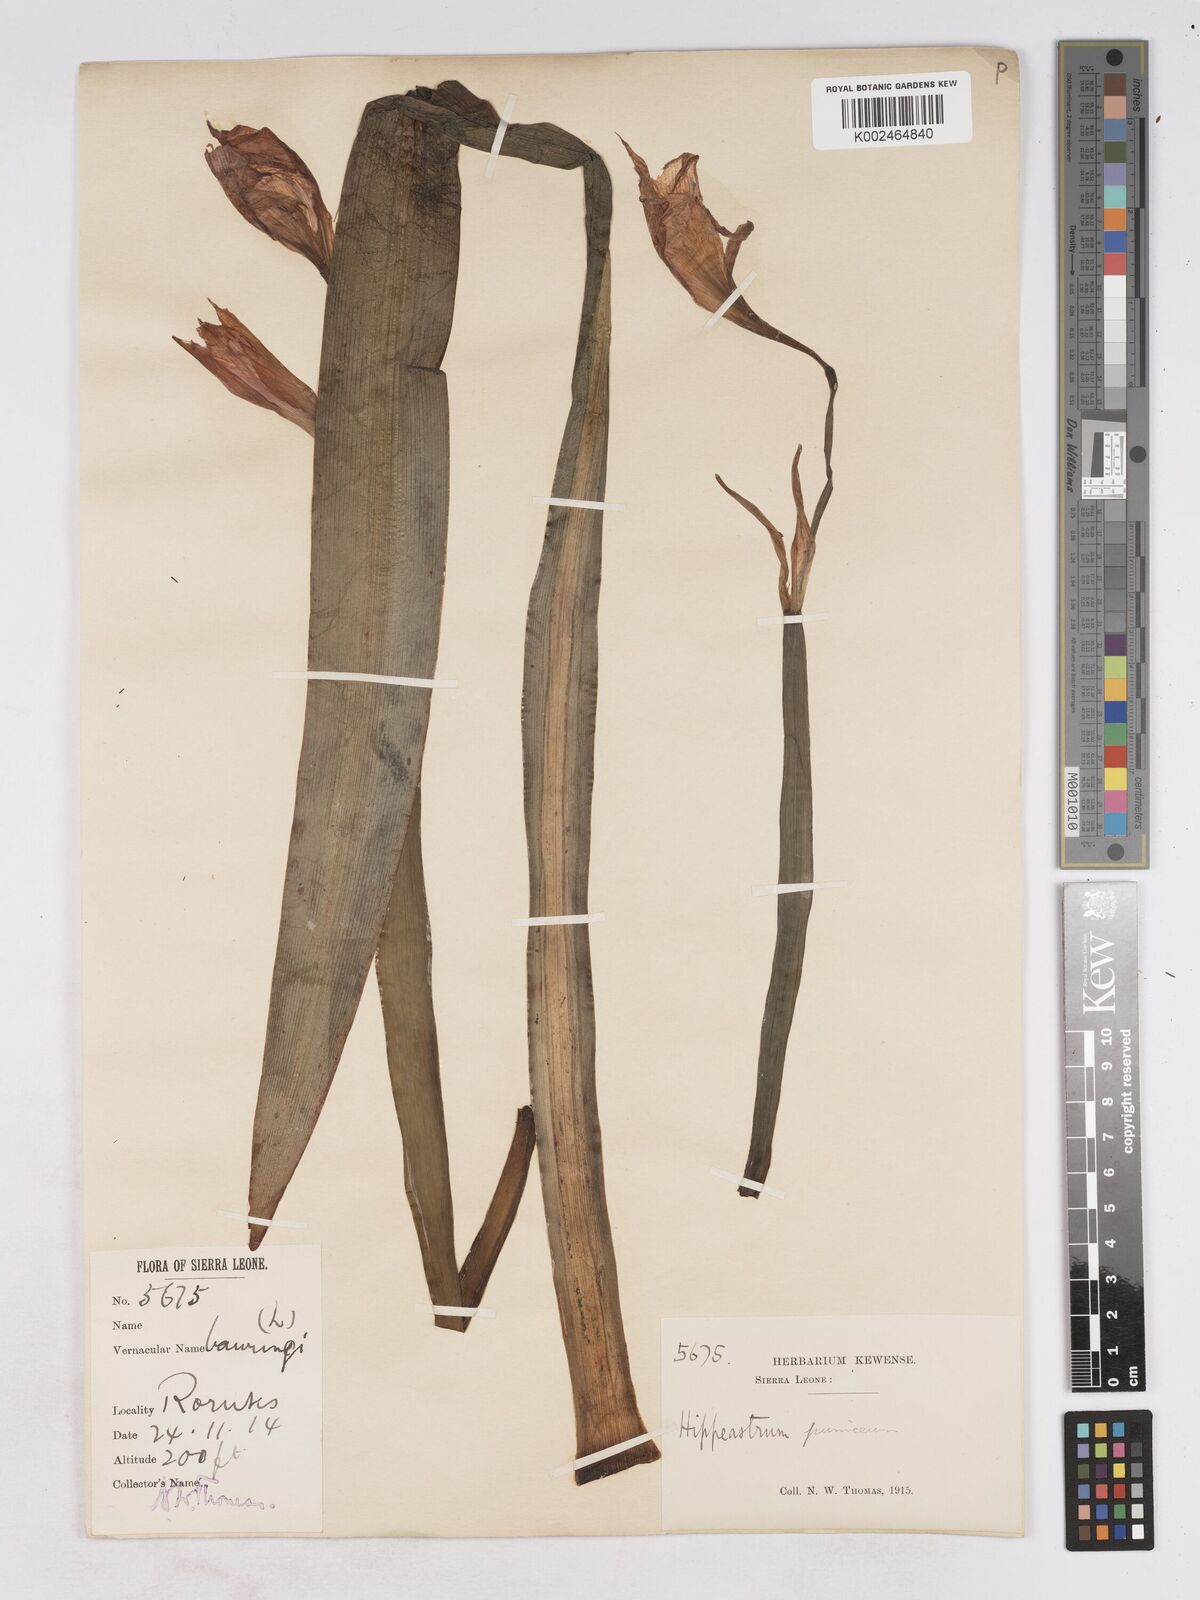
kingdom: Plantae
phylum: Tracheophyta
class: Liliopsida
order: Asparagales
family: Amaryllidaceae
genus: Hippeastrum
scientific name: Hippeastrum puniceum
